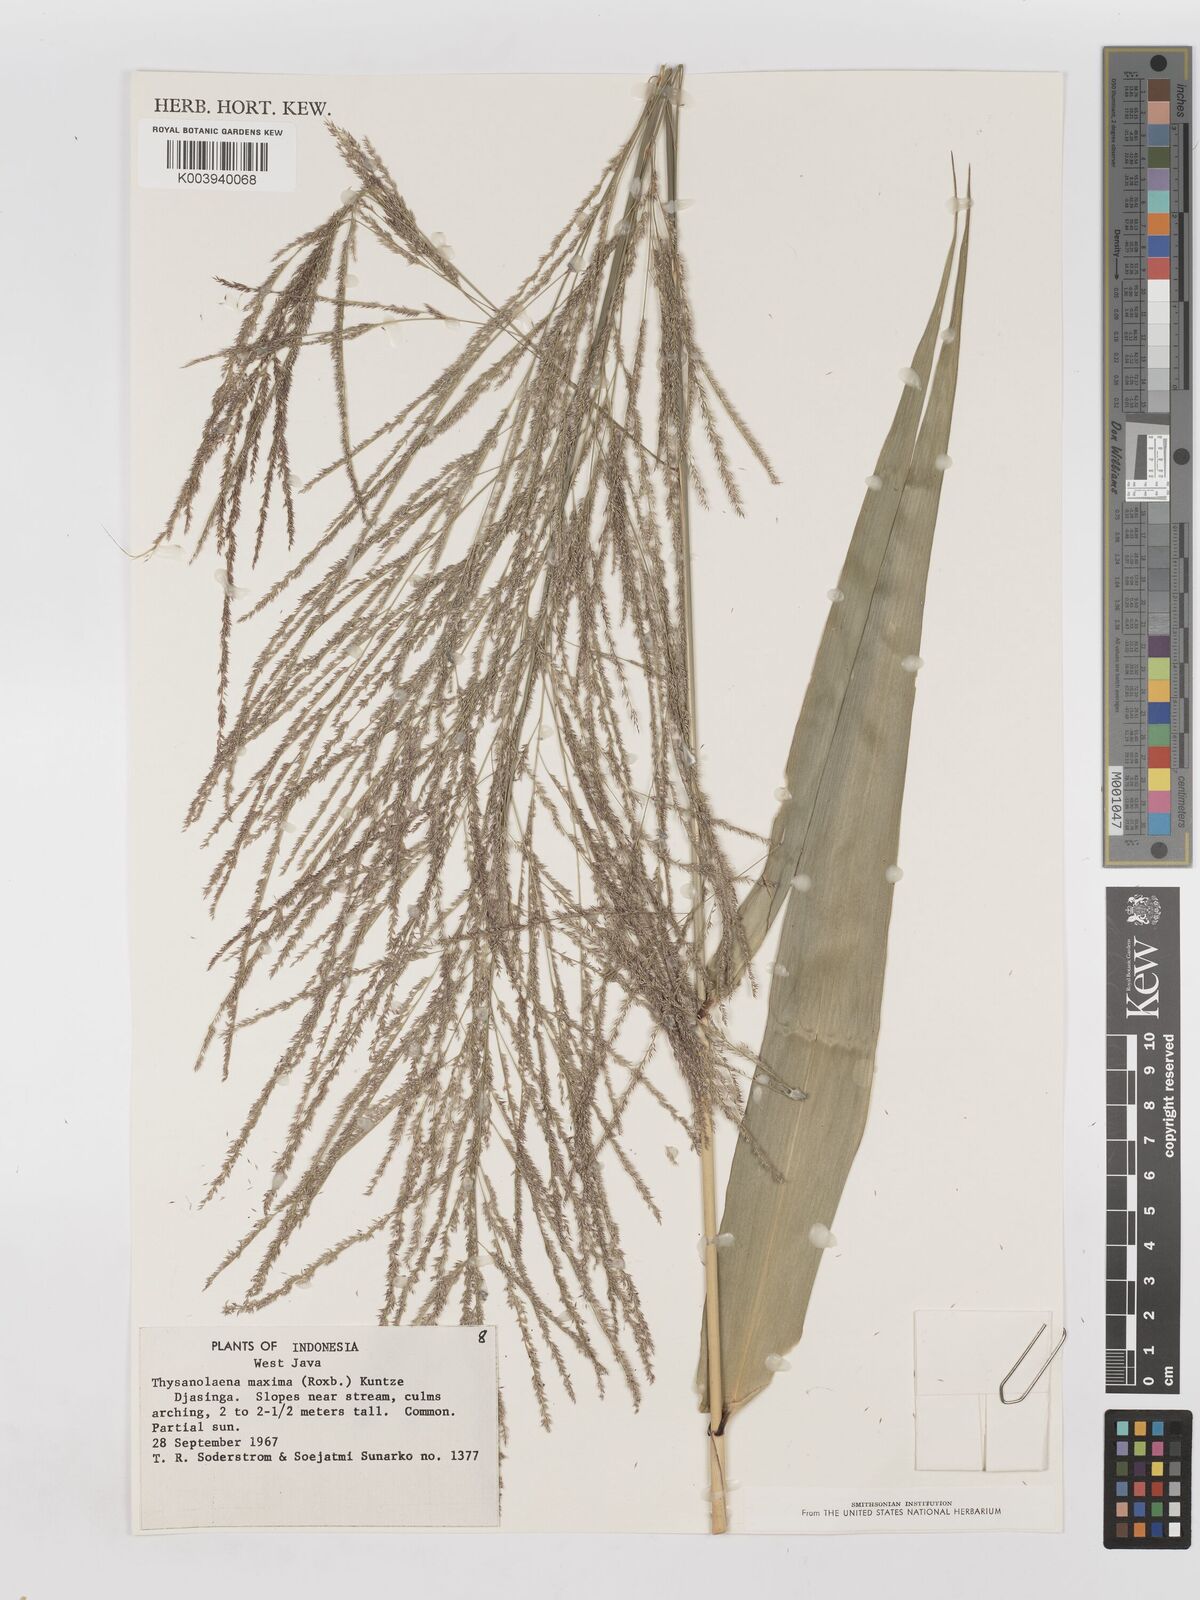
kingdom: Plantae
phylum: Tracheophyta
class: Liliopsida
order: Poales
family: Poaceae
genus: Thysanolaena
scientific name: Thysanolaena latifolia
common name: Tiger grass
